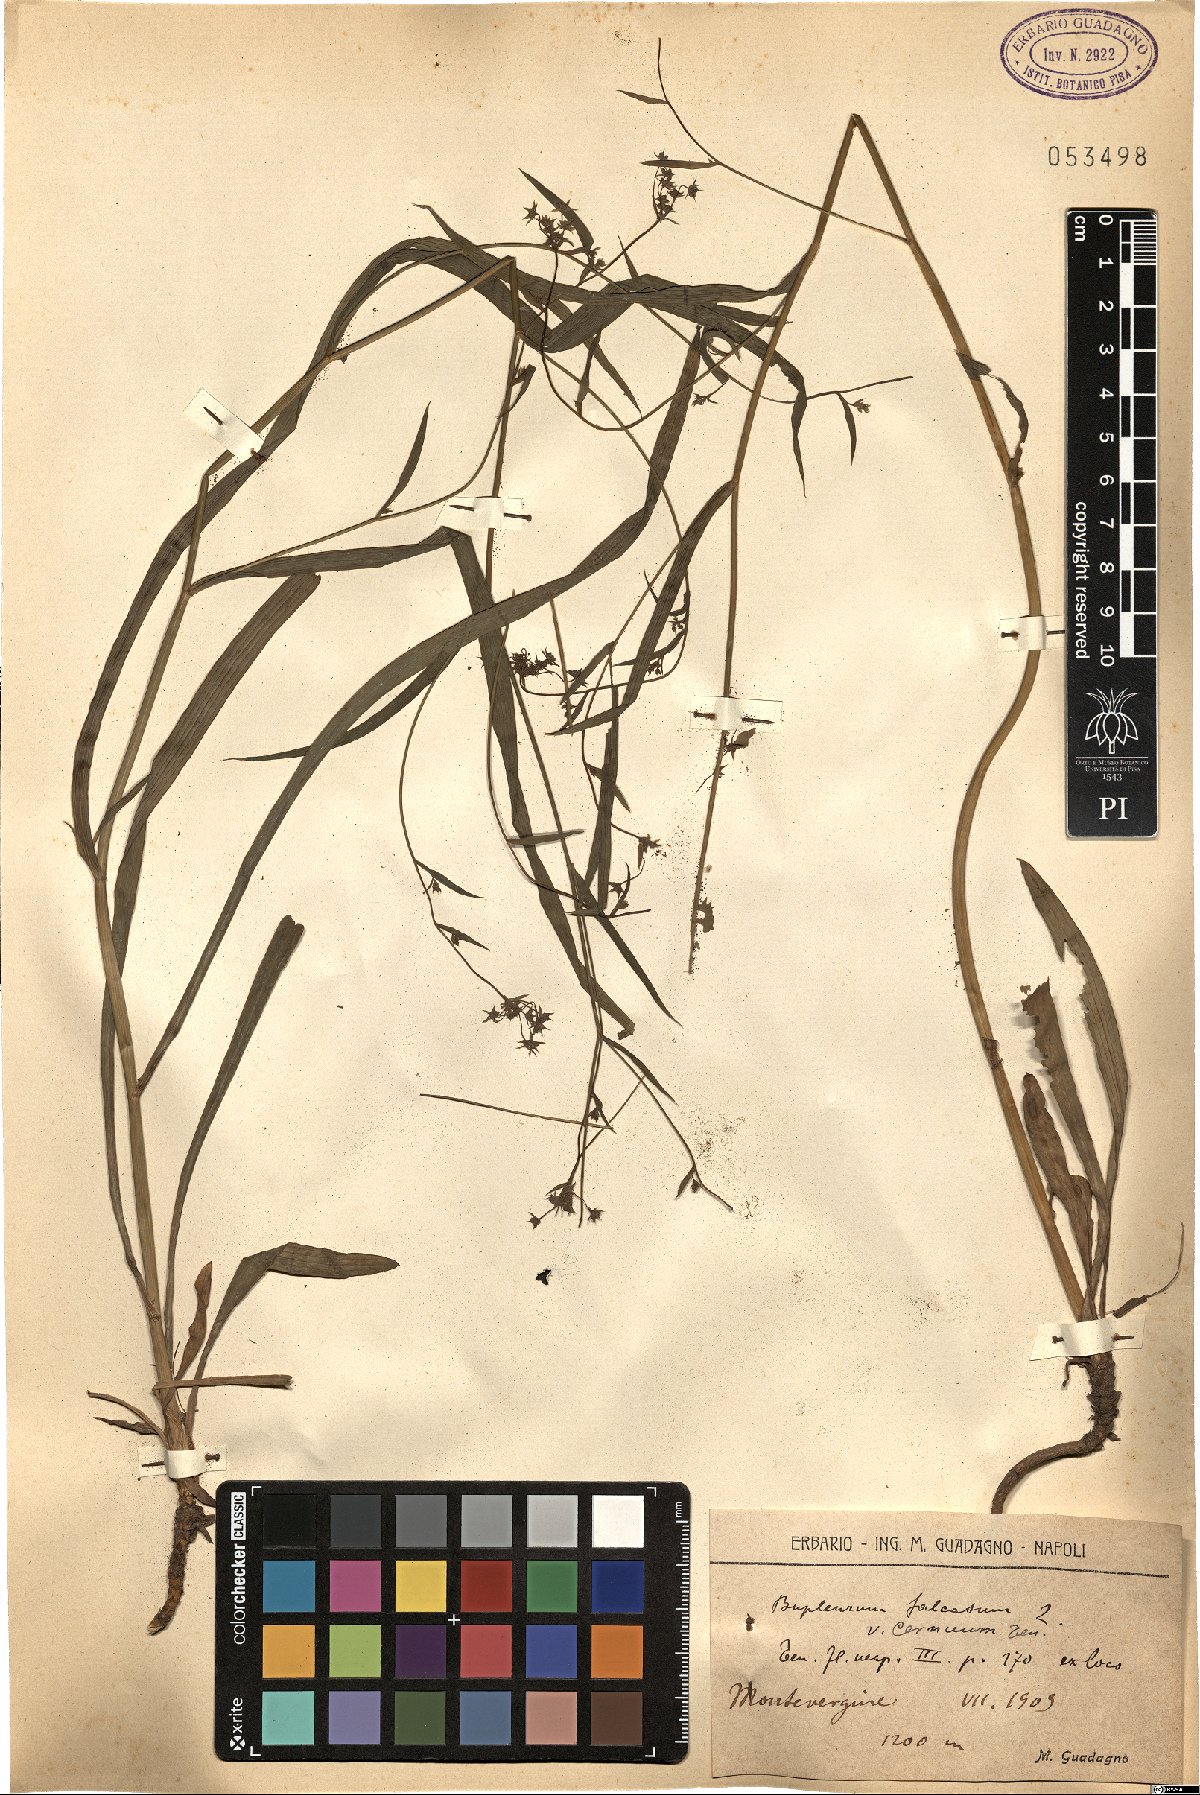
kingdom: Plantae
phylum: Tracheophyta
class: Magnoliopsida
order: Apiales
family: Apiaceae
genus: Bupleurum
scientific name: Bupleurum exaltatum
